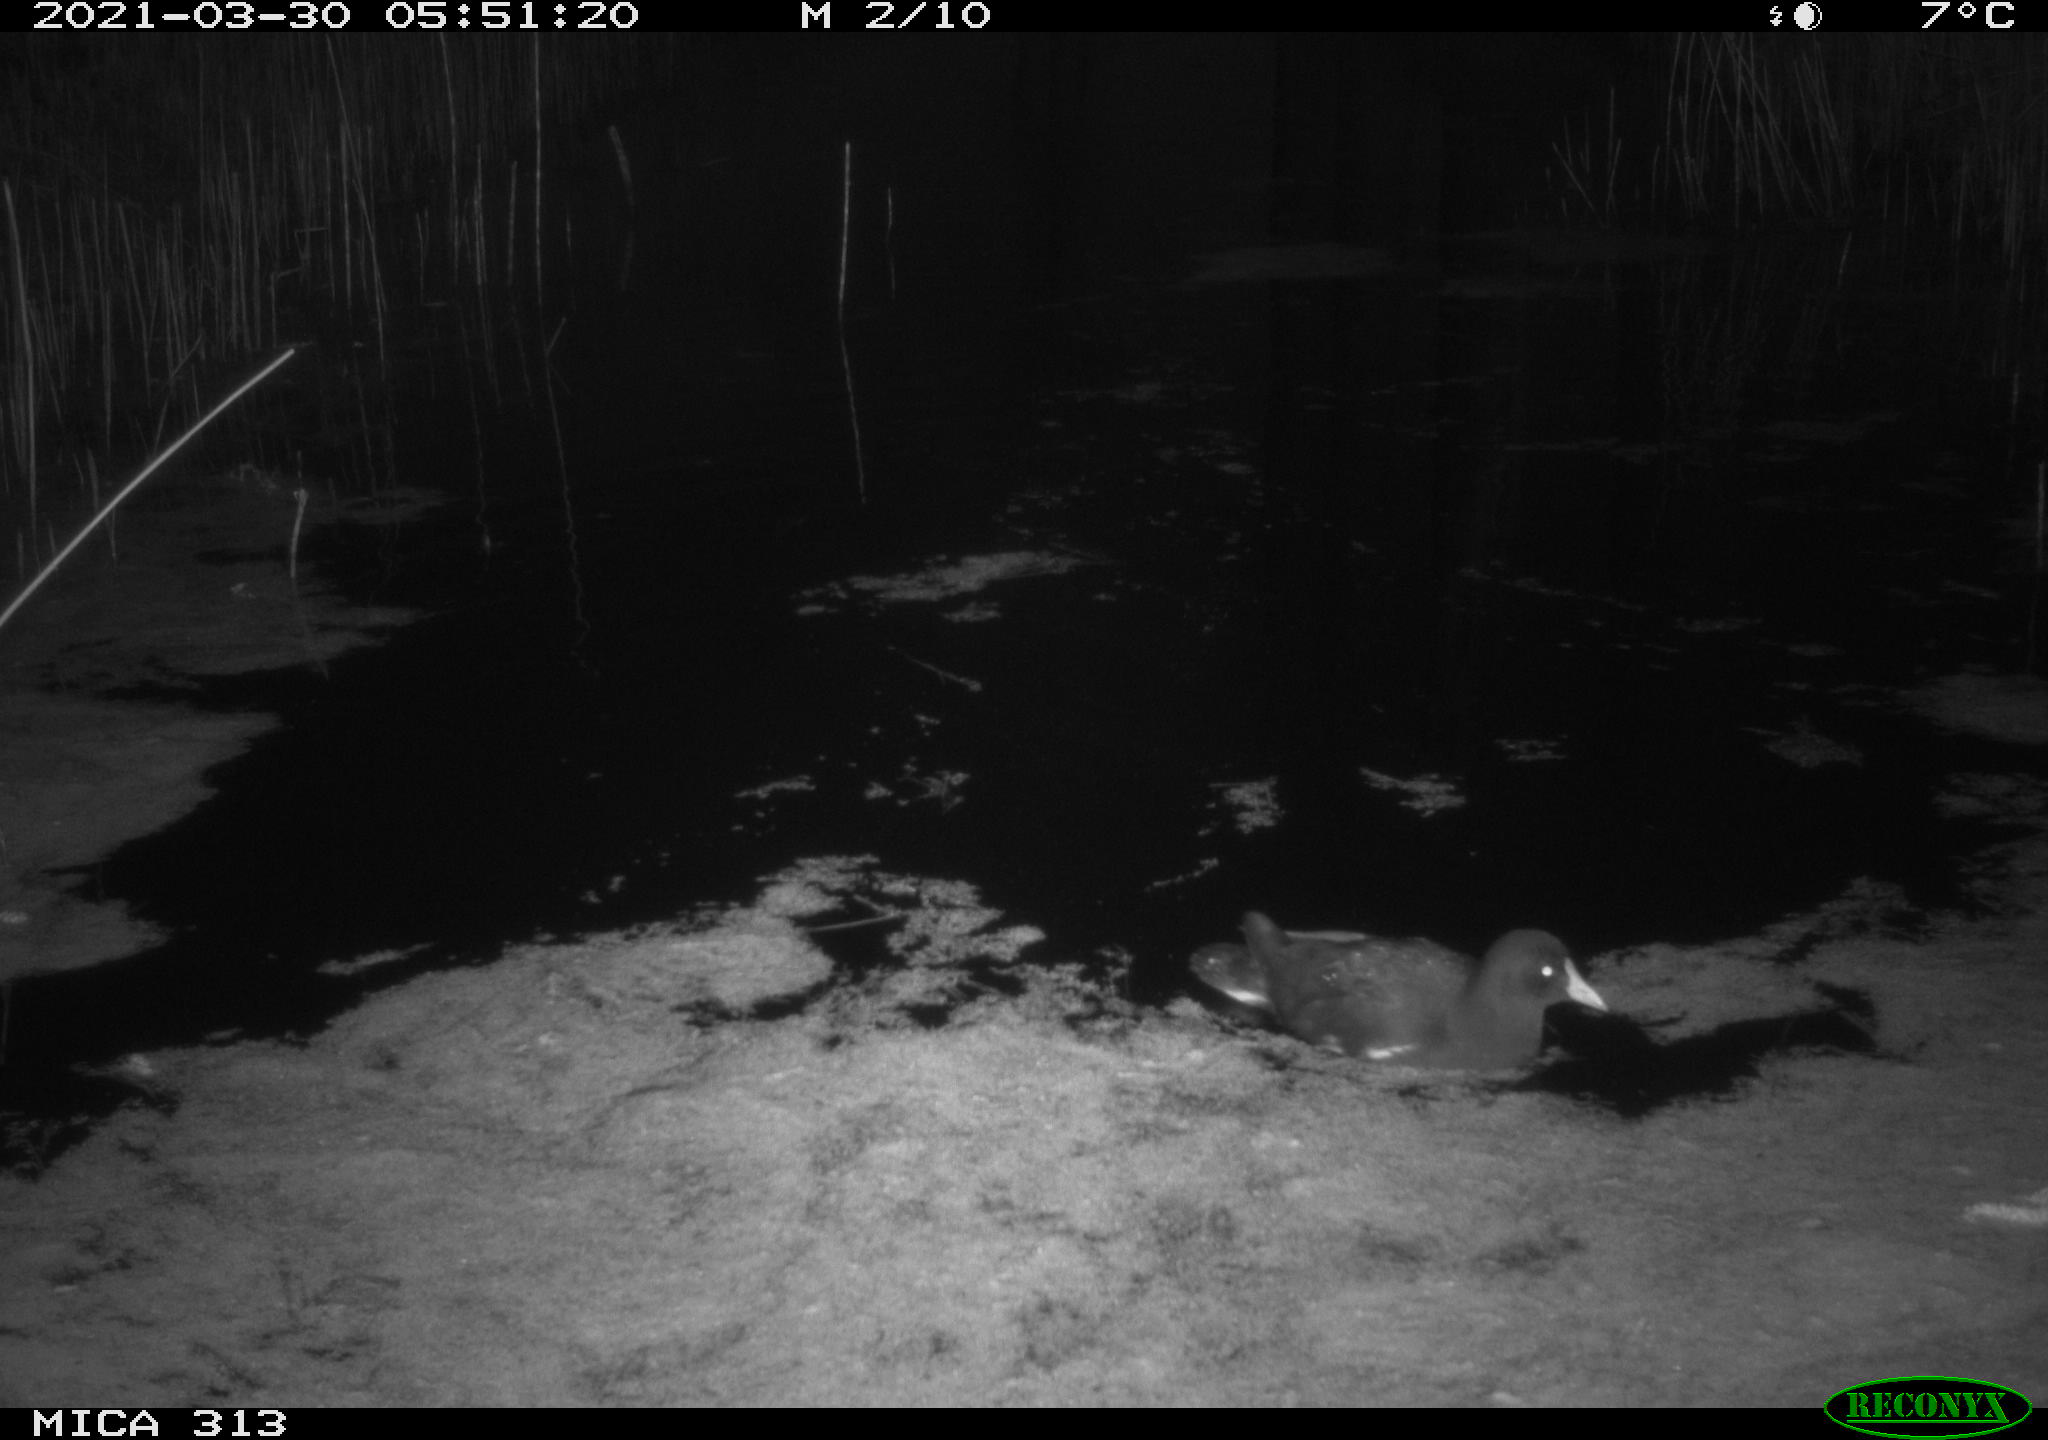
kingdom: Animalia
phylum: Chordata
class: Aves
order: Gruiformes
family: Rallidae
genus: Fulica
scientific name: Fulica atra
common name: Eurasian coot
